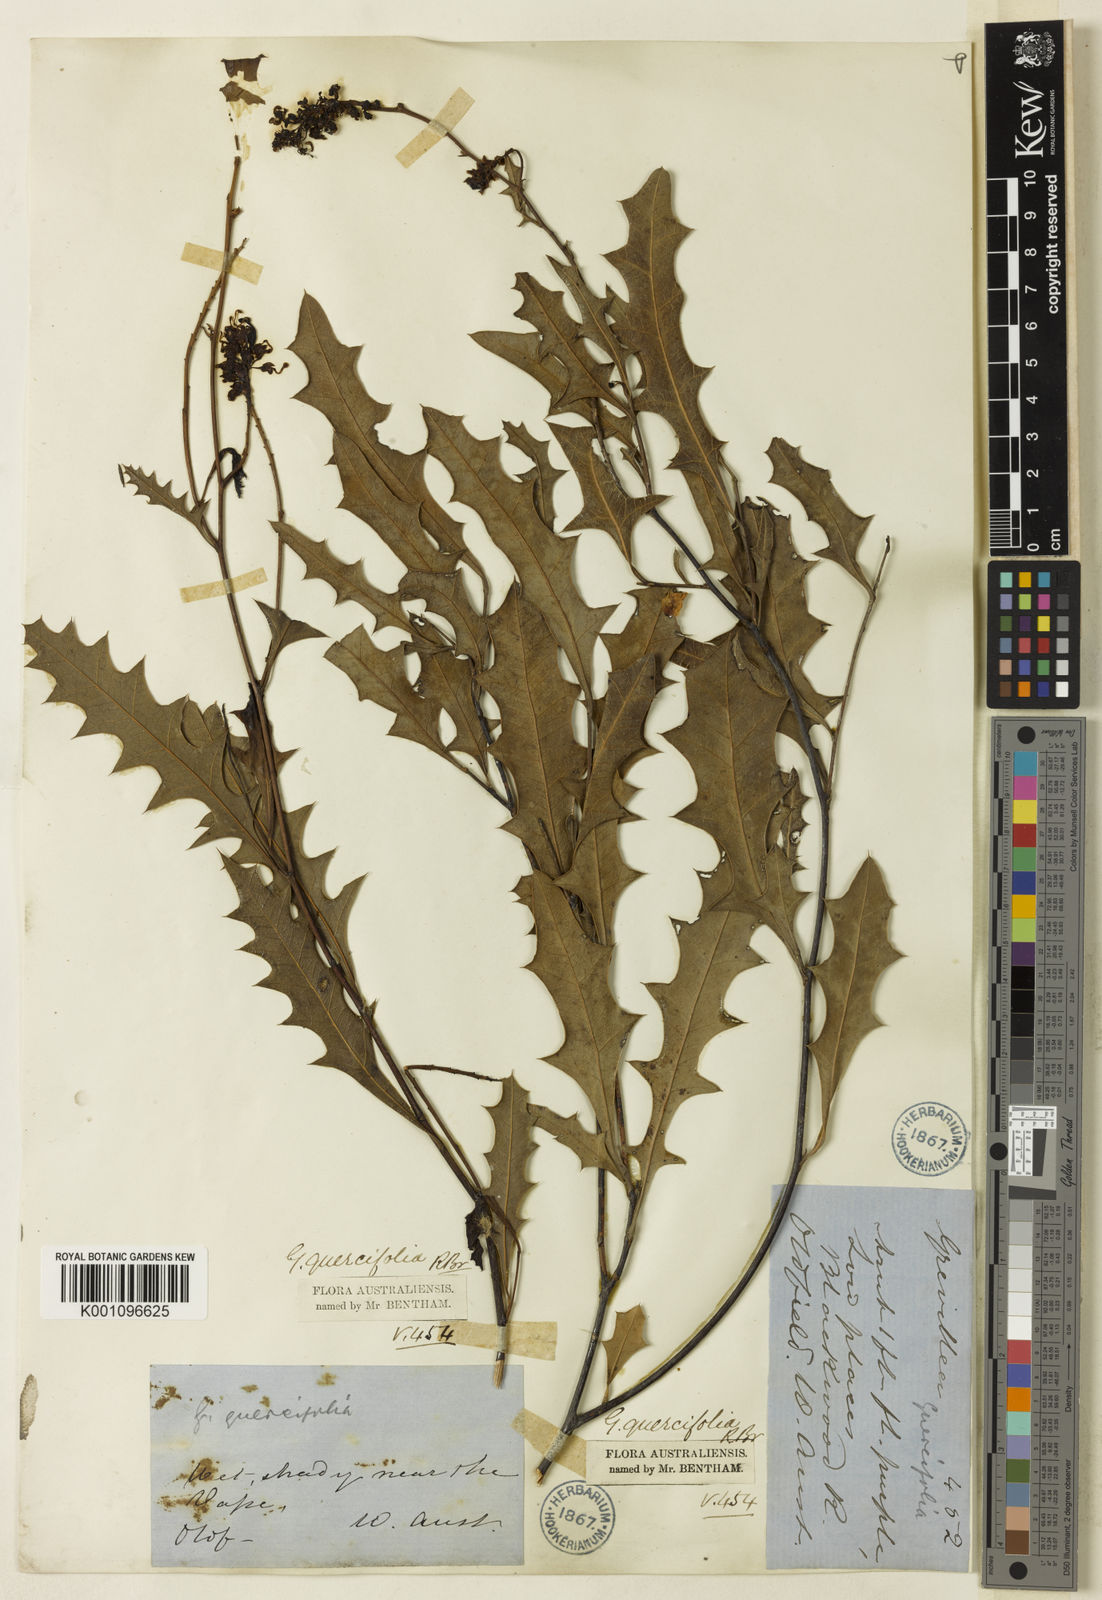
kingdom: Plantae
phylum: Tracheophyta
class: Magnoliopsida
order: Proteales
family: Proteaceae
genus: Grevillea
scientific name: Grevillea quercifolia
